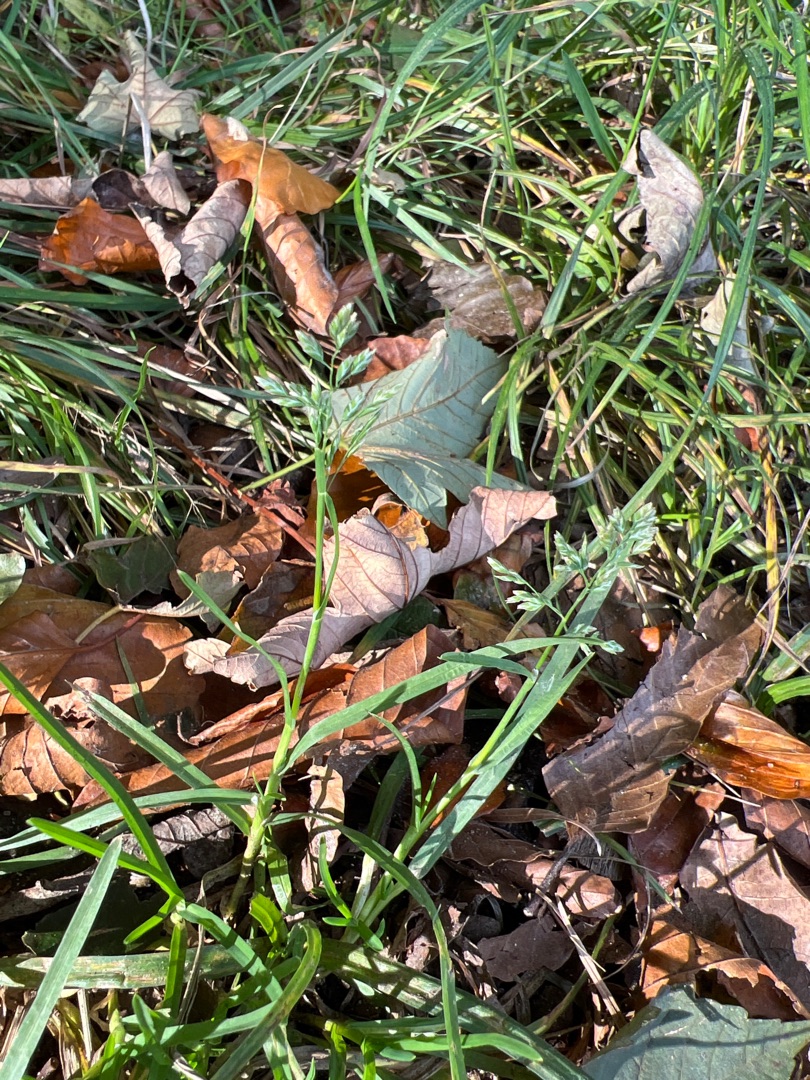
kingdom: Plantae
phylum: Tracheophyta
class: Liliopsida
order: Poales
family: Poaceae
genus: Poa
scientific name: Poa annua
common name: Enårig rapgræs
